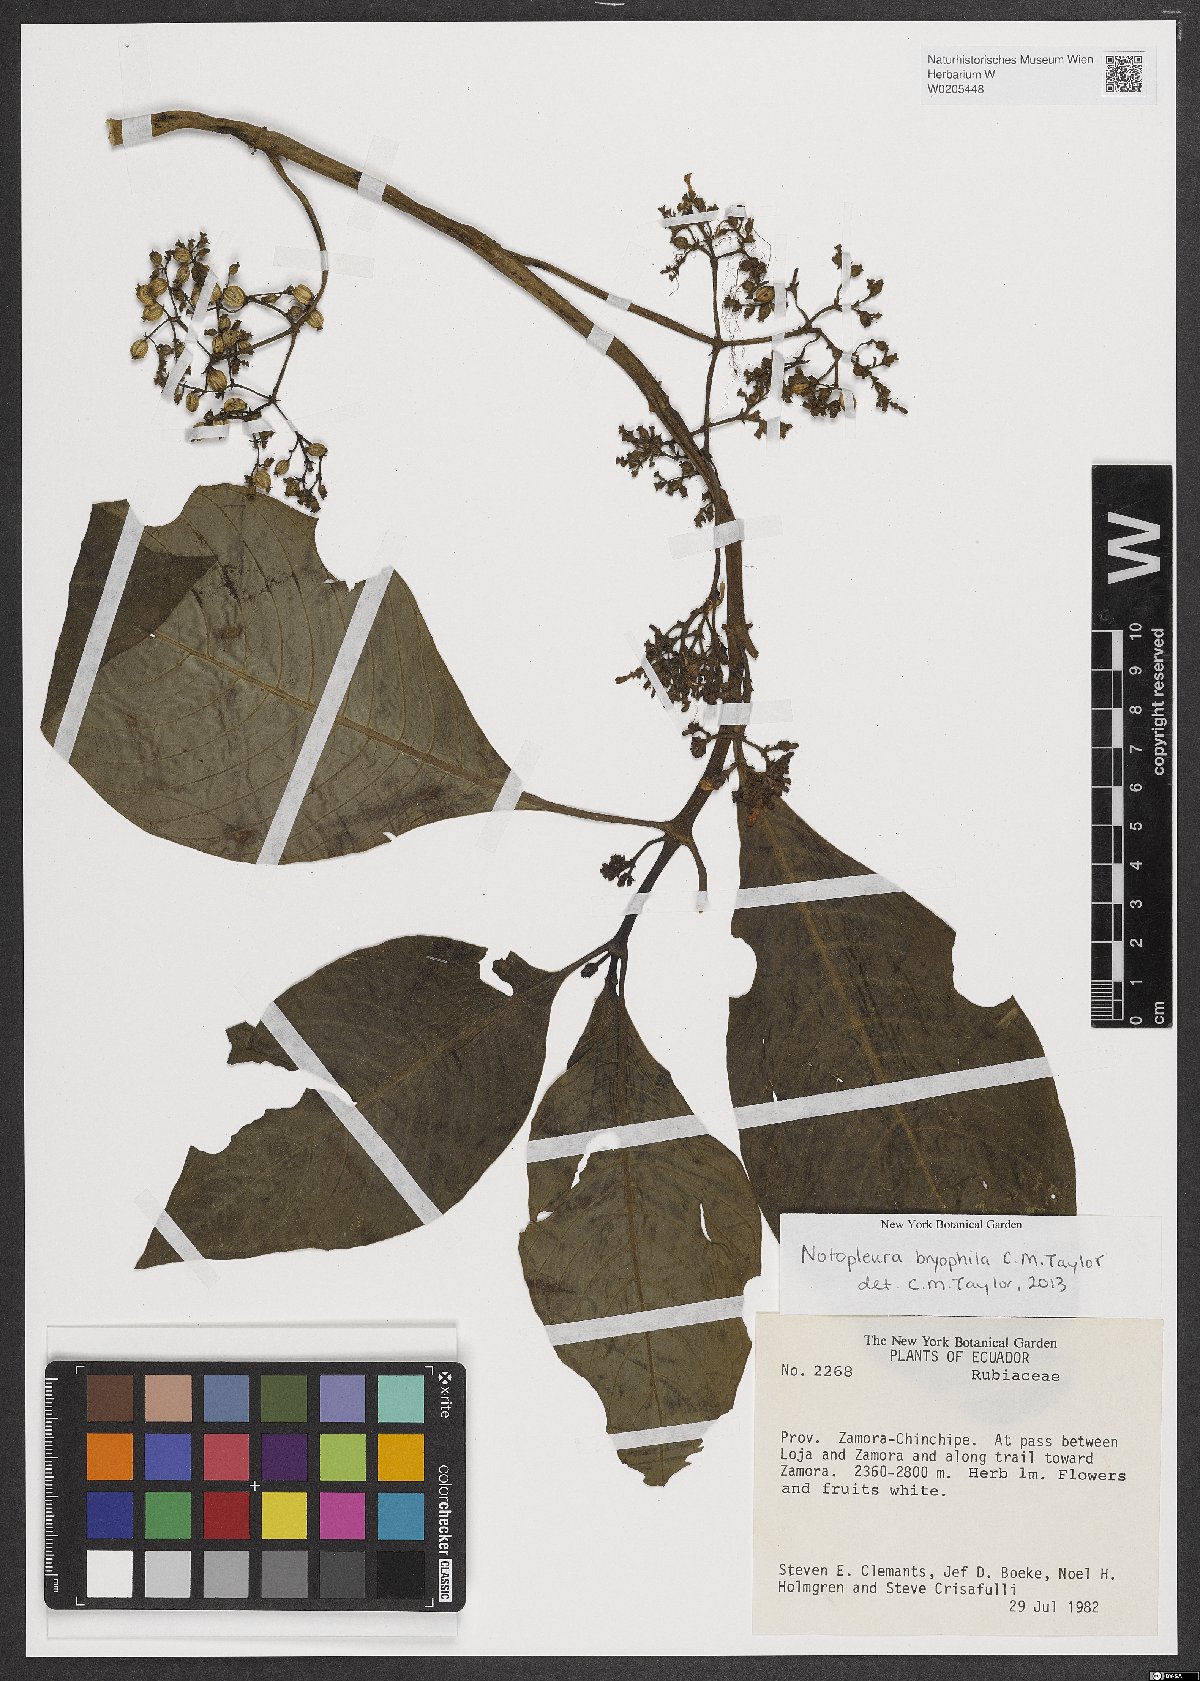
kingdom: Plantae
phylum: Tracheophyta
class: Magnoliopsida
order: Gentianales
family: Rubiaceae
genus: Notopleura
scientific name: Notopleura bryophila
